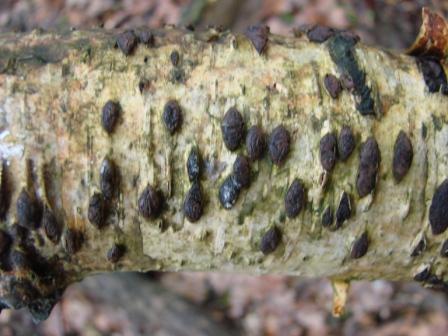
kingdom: Fungi
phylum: Ascomycota
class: Sordariomycetes
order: Xylariales
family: Hypoxylaceae
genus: Jackrogersella
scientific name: Jackrogersella multiformis
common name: foranderlig kulbær
